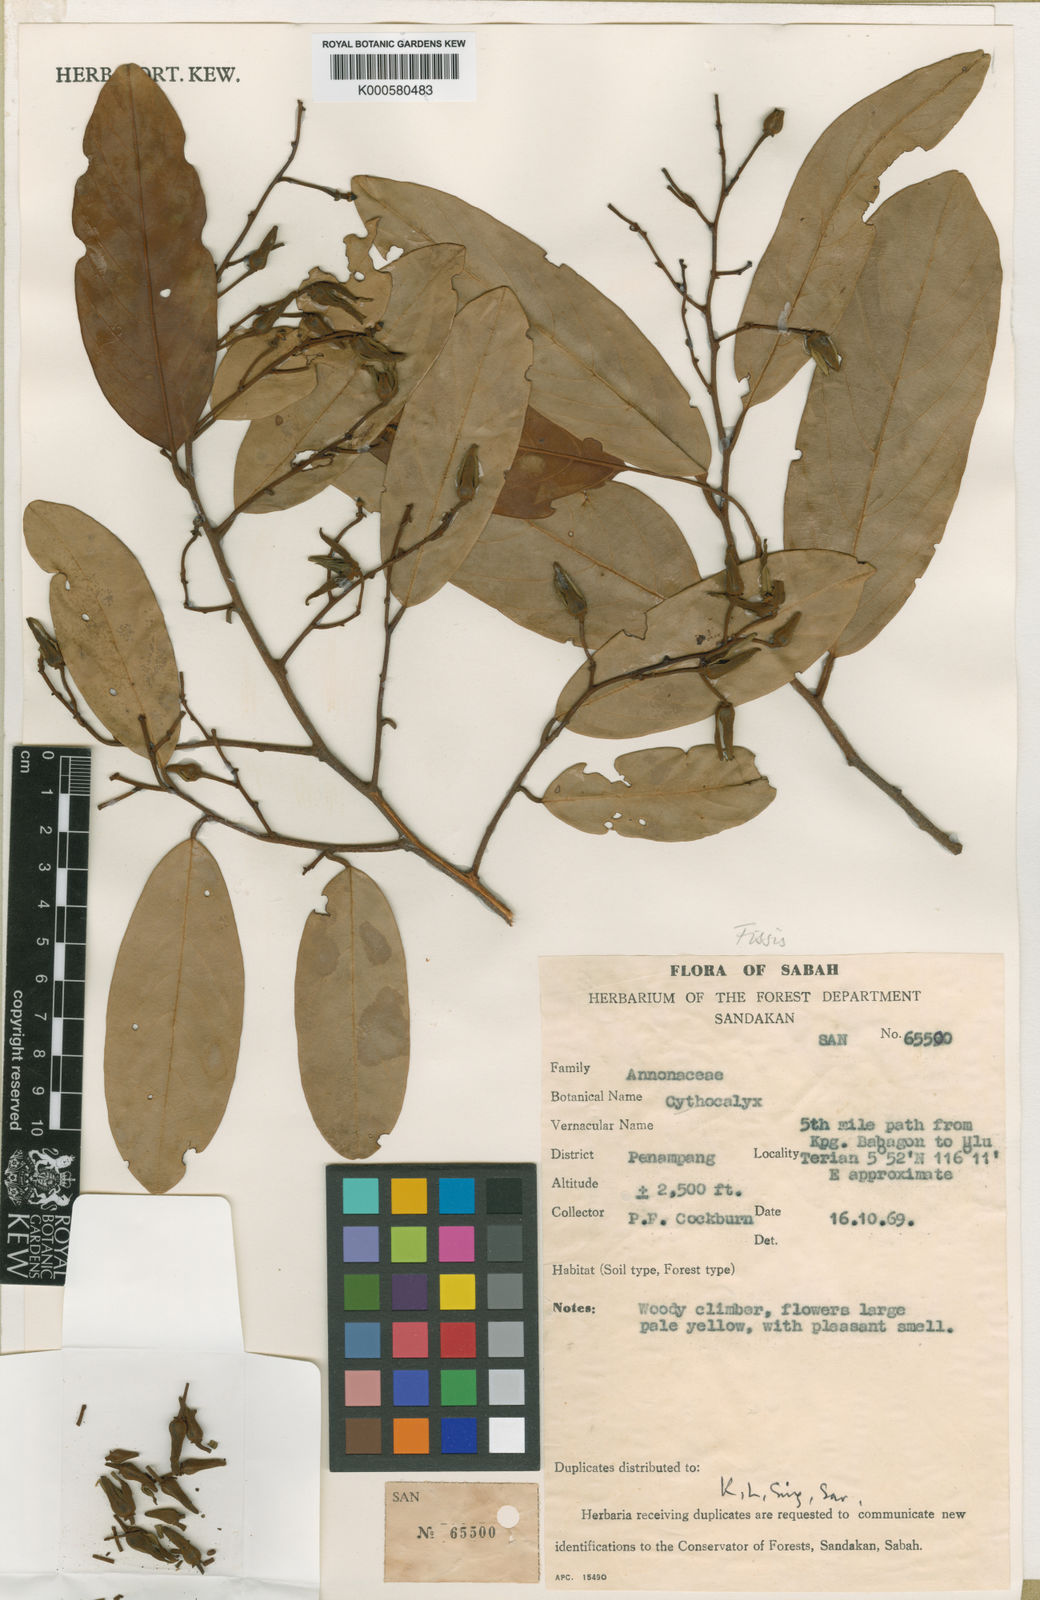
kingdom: Plantae
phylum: Tracheophyta
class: Magnoliopsida
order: Magnoliales
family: Annonaceae
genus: Fissistigma
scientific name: Fissistigma bygravei
